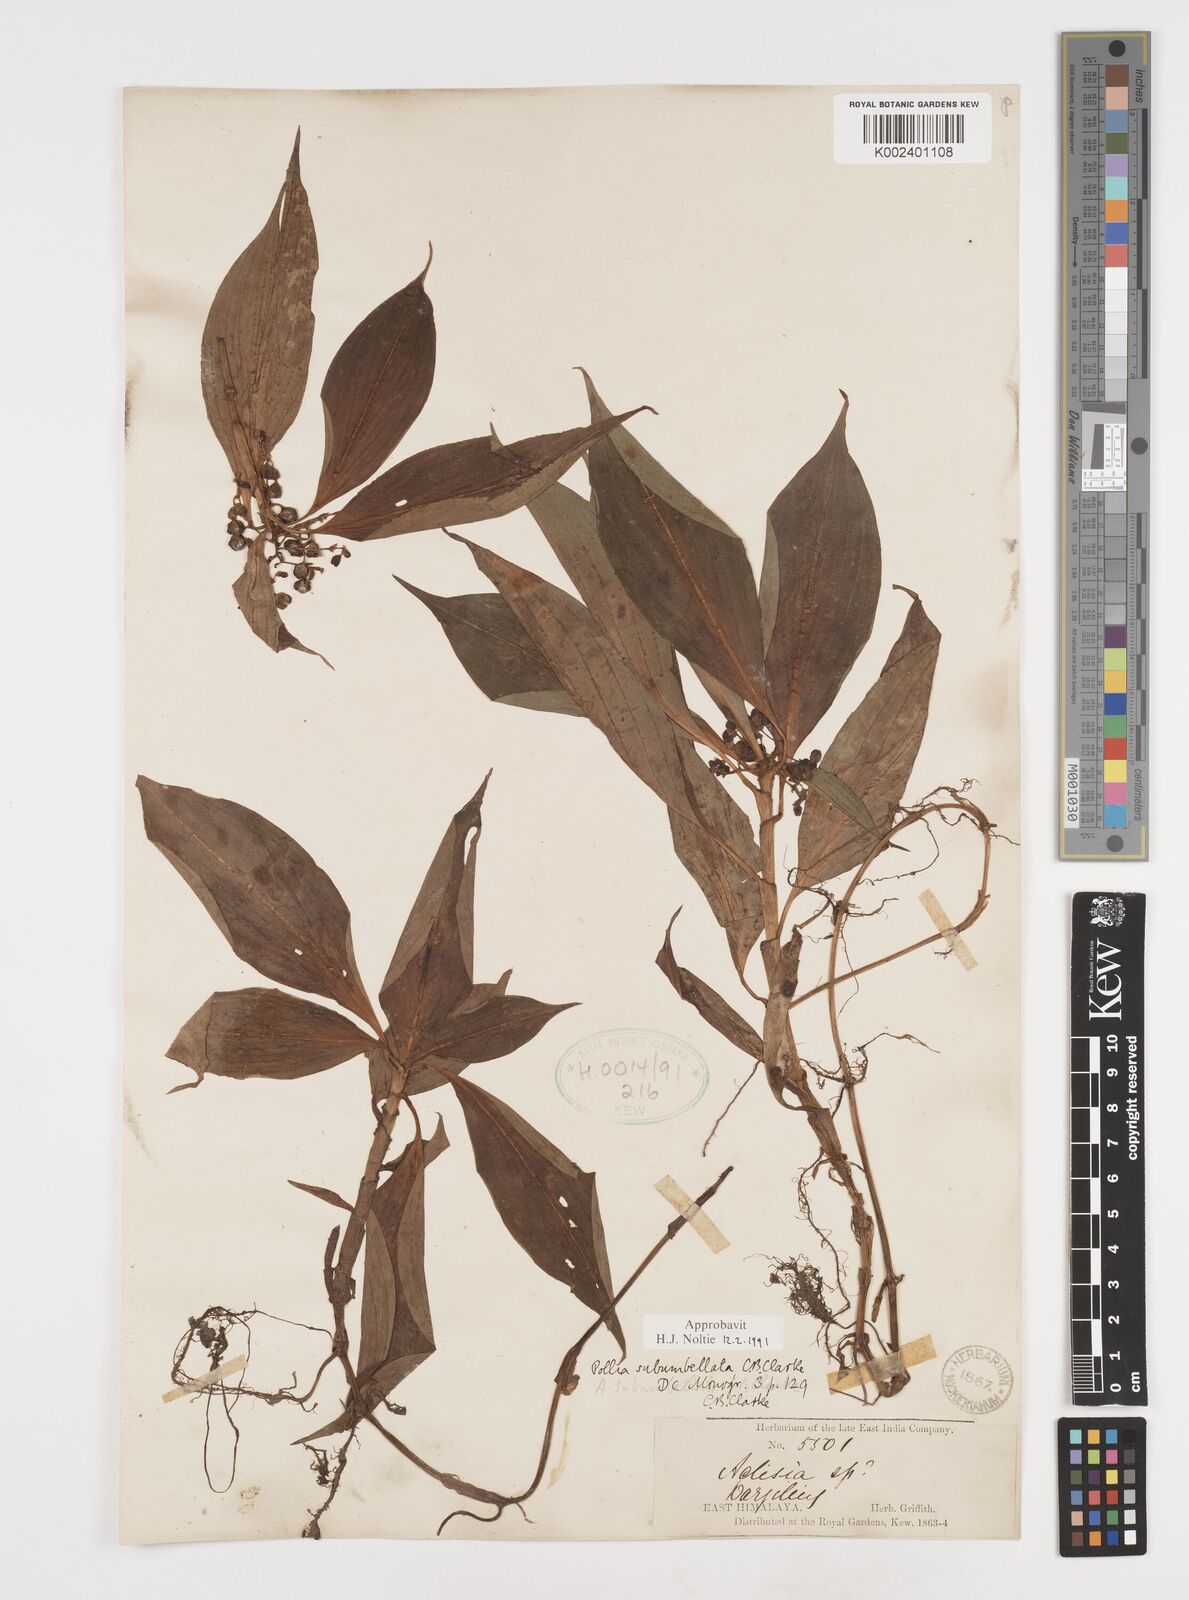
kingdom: Plantae
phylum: Tracheophyta
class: Liliopsida
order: Commelinales
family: Commelinaceae
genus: Pollia
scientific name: Pollia subumbellata
